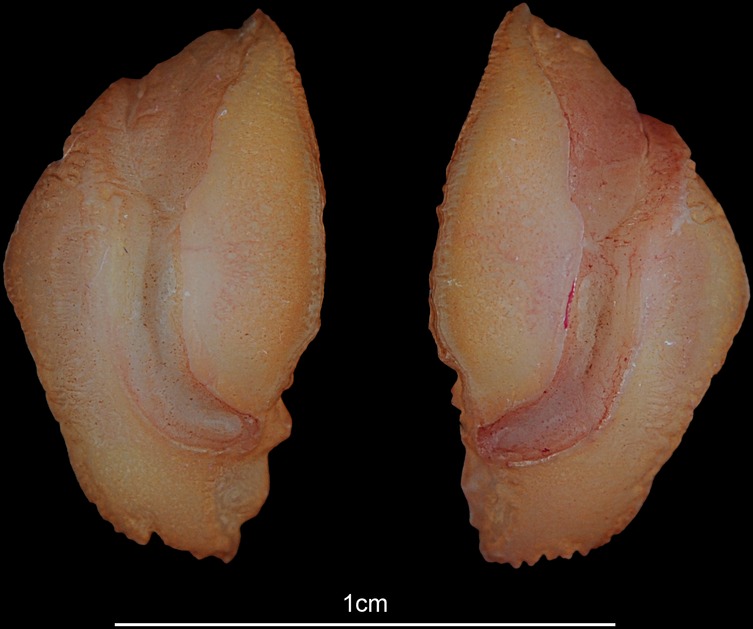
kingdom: Animalia
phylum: Chordata
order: Perciformes
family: Lutjanidae
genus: Lutjanus
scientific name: Lutjanus fulviflamma
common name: Blackspot snapper
